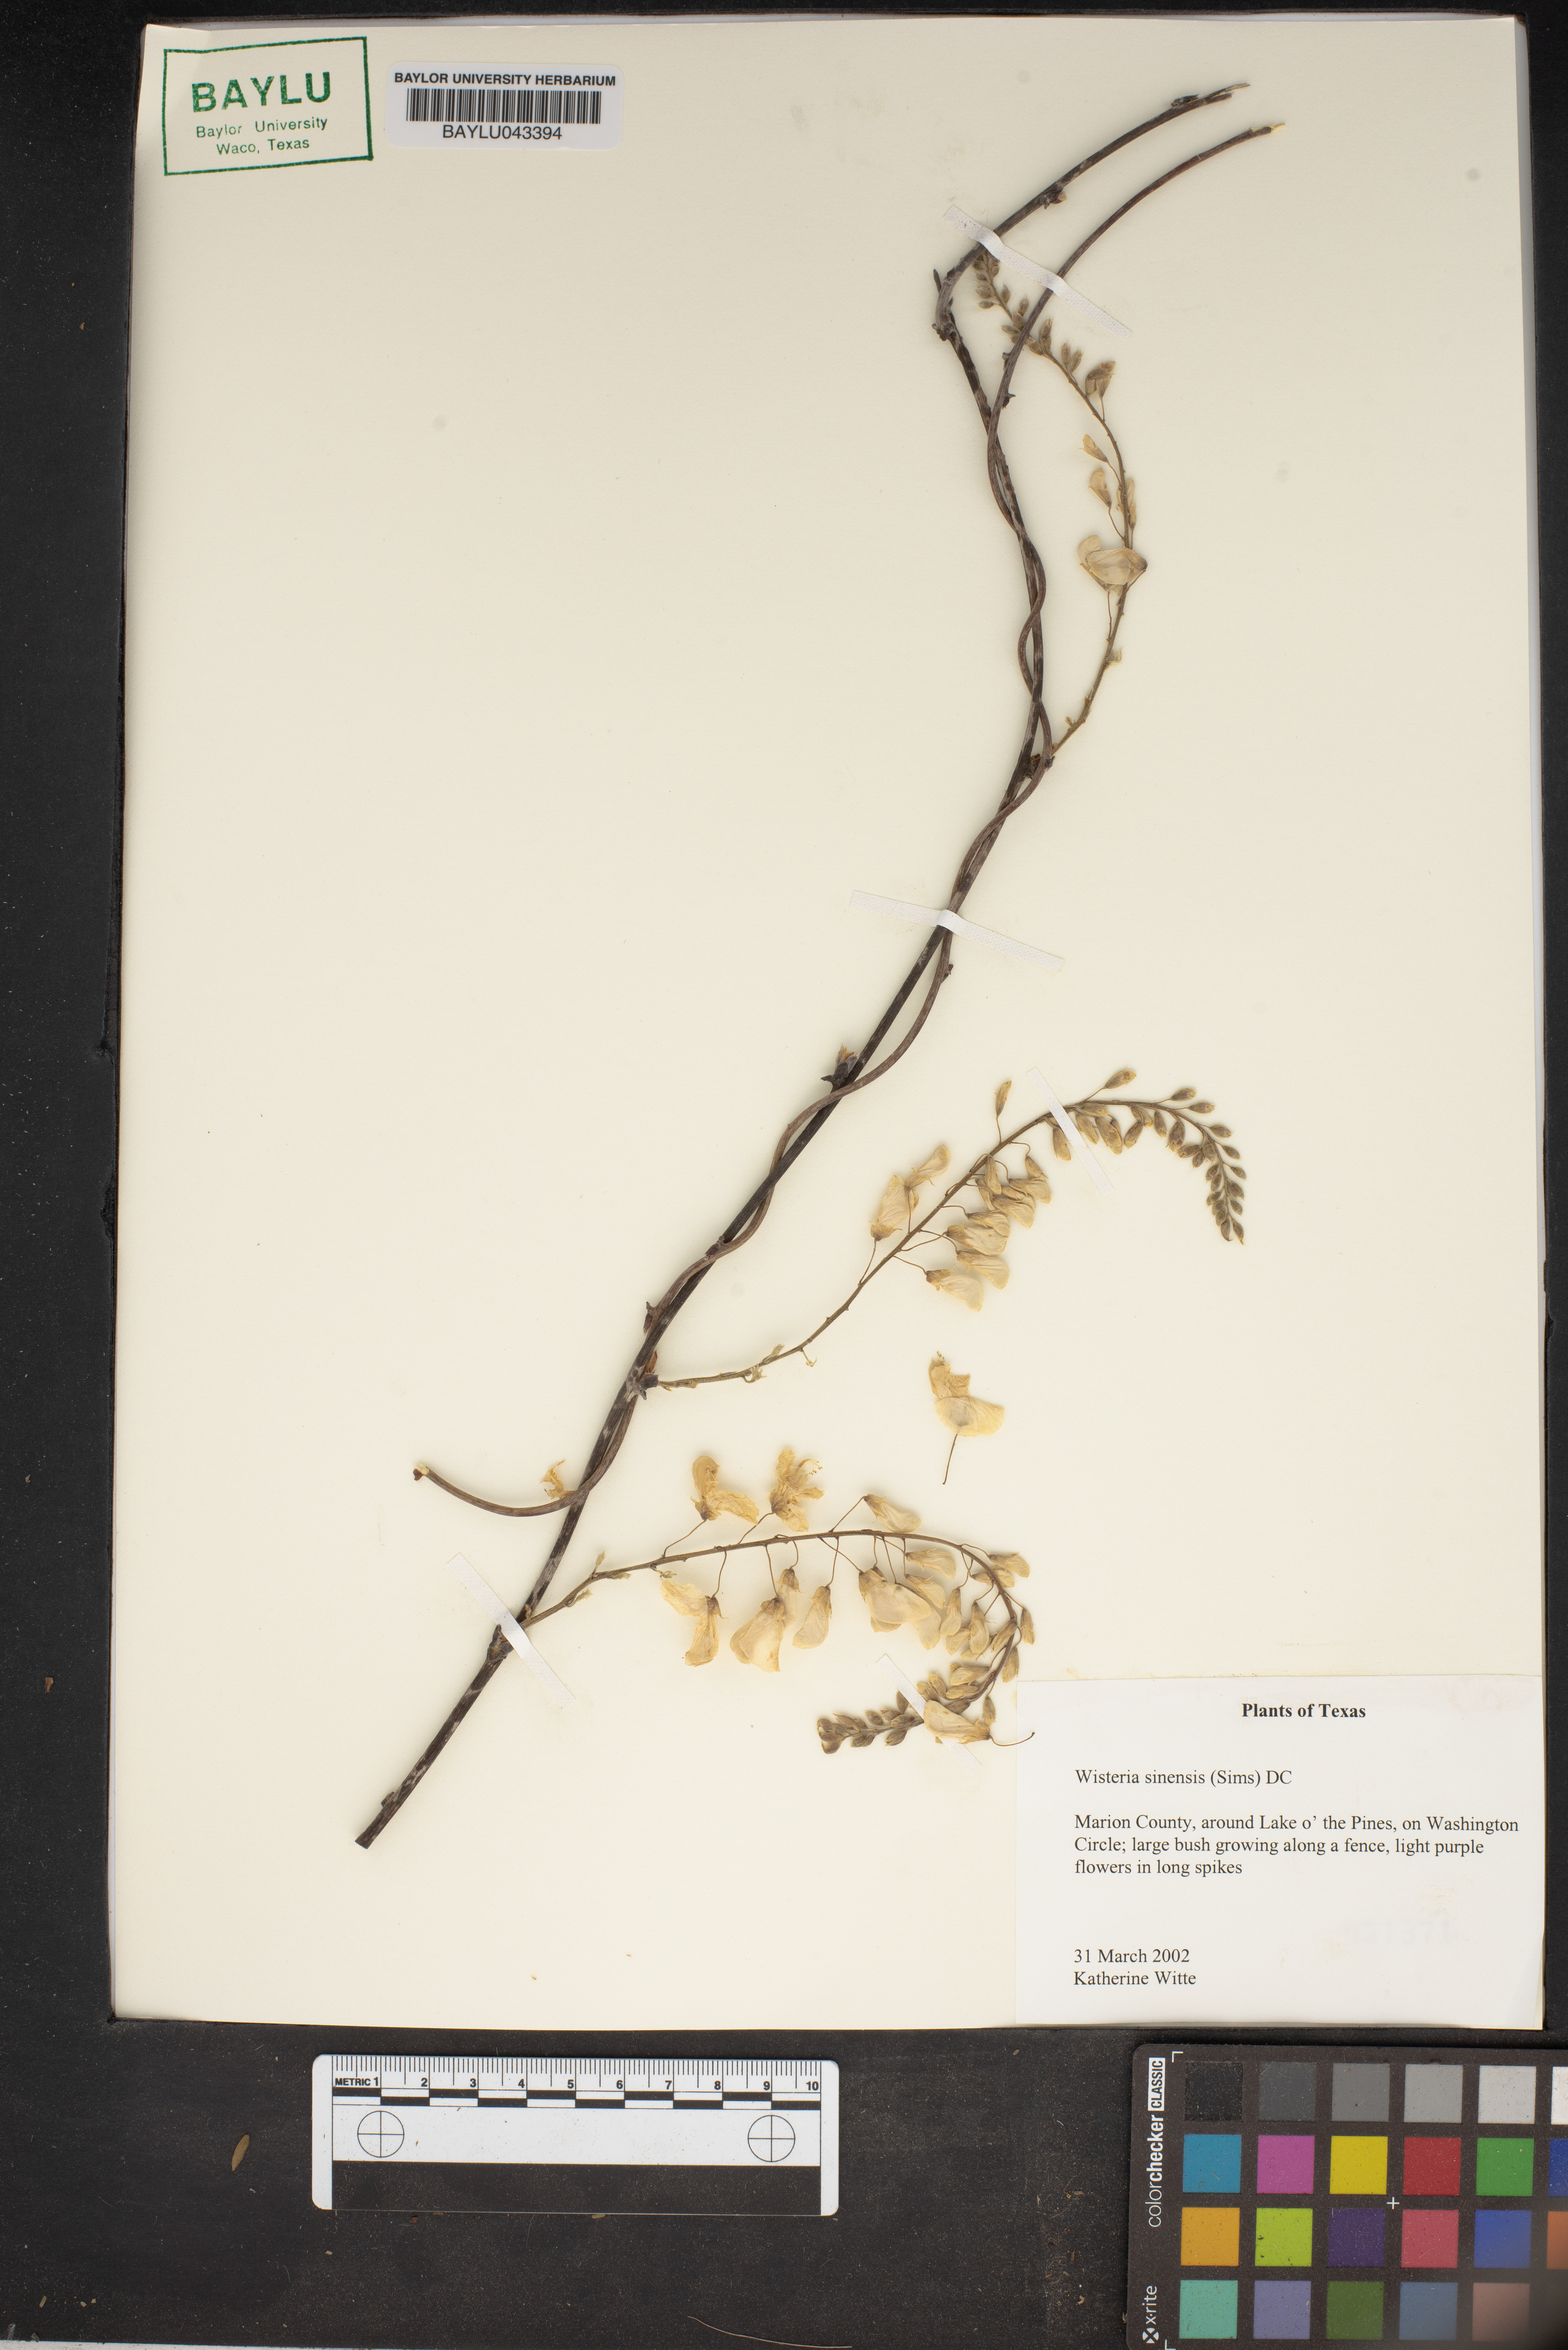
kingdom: Plantae
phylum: Tracheophyta
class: Magnoliopsida
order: Fabales
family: Fabaceae
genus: Wisteria
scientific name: Wisteria sinensis
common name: Chinese wisteria
